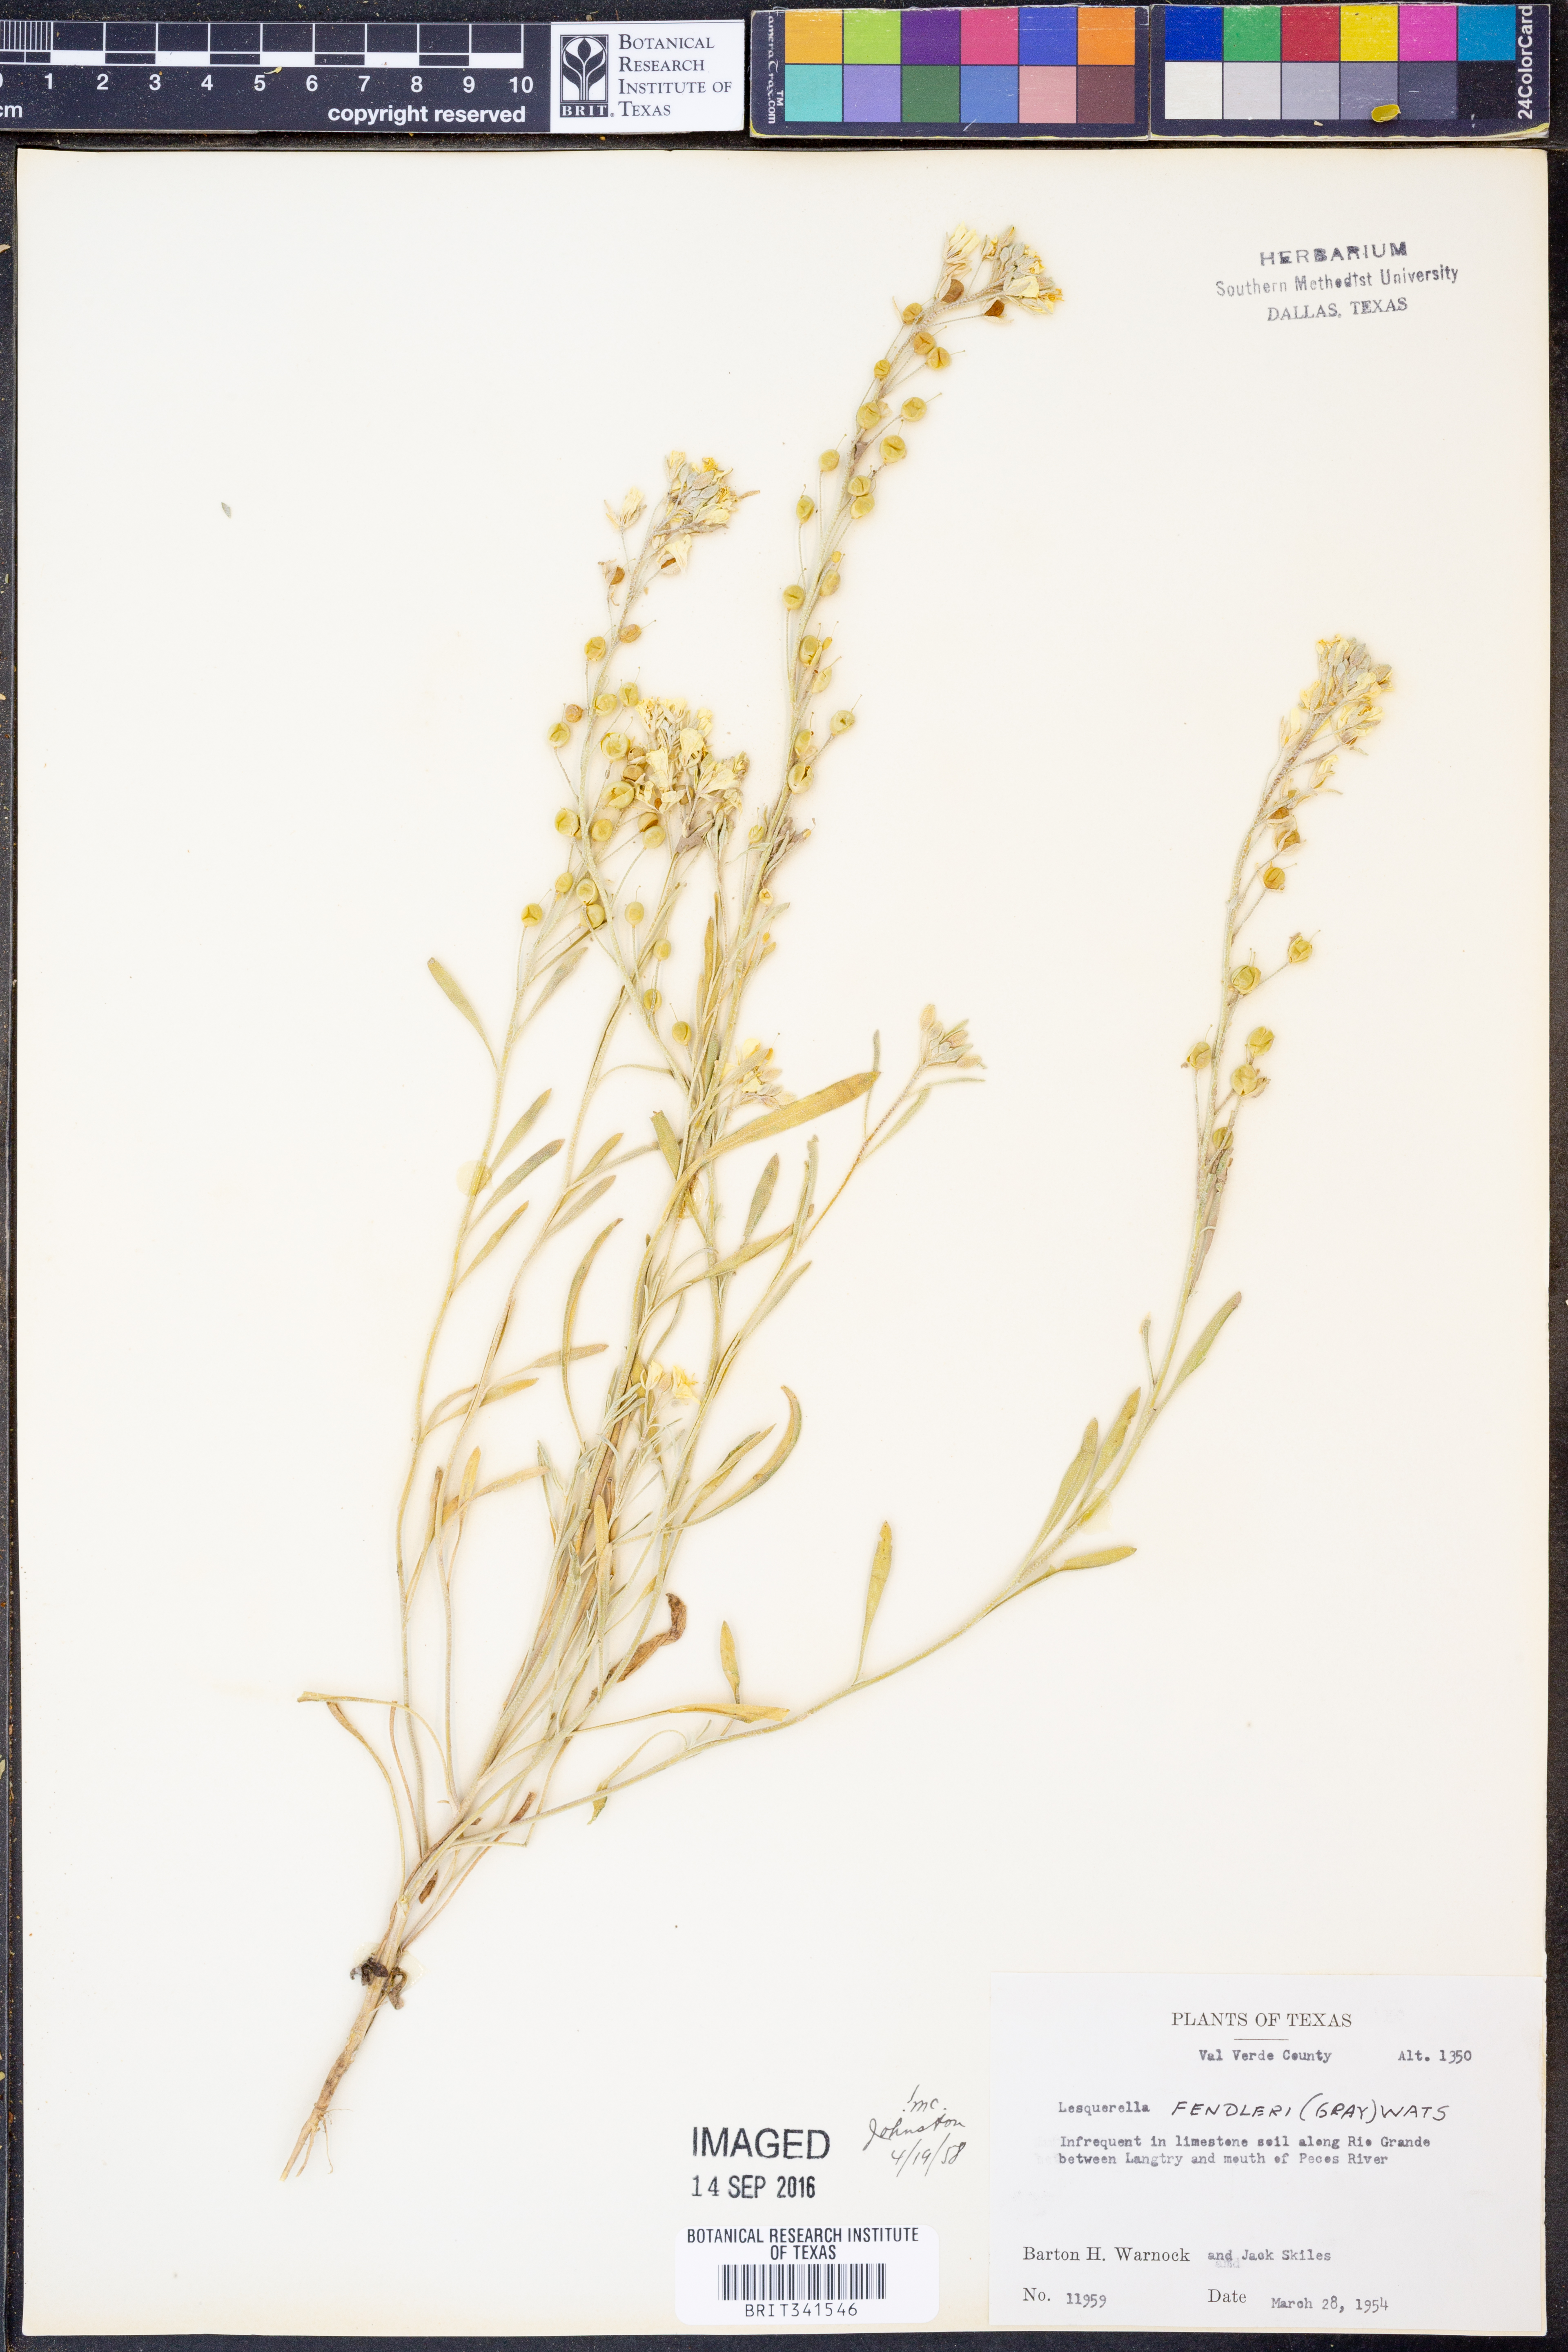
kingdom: Plantae
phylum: Tracheophyta
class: Magnoliopsida
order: Brassicales
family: Brassicaceae
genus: Physaria
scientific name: Physaria fendleri
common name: Fendler's bladderpod
